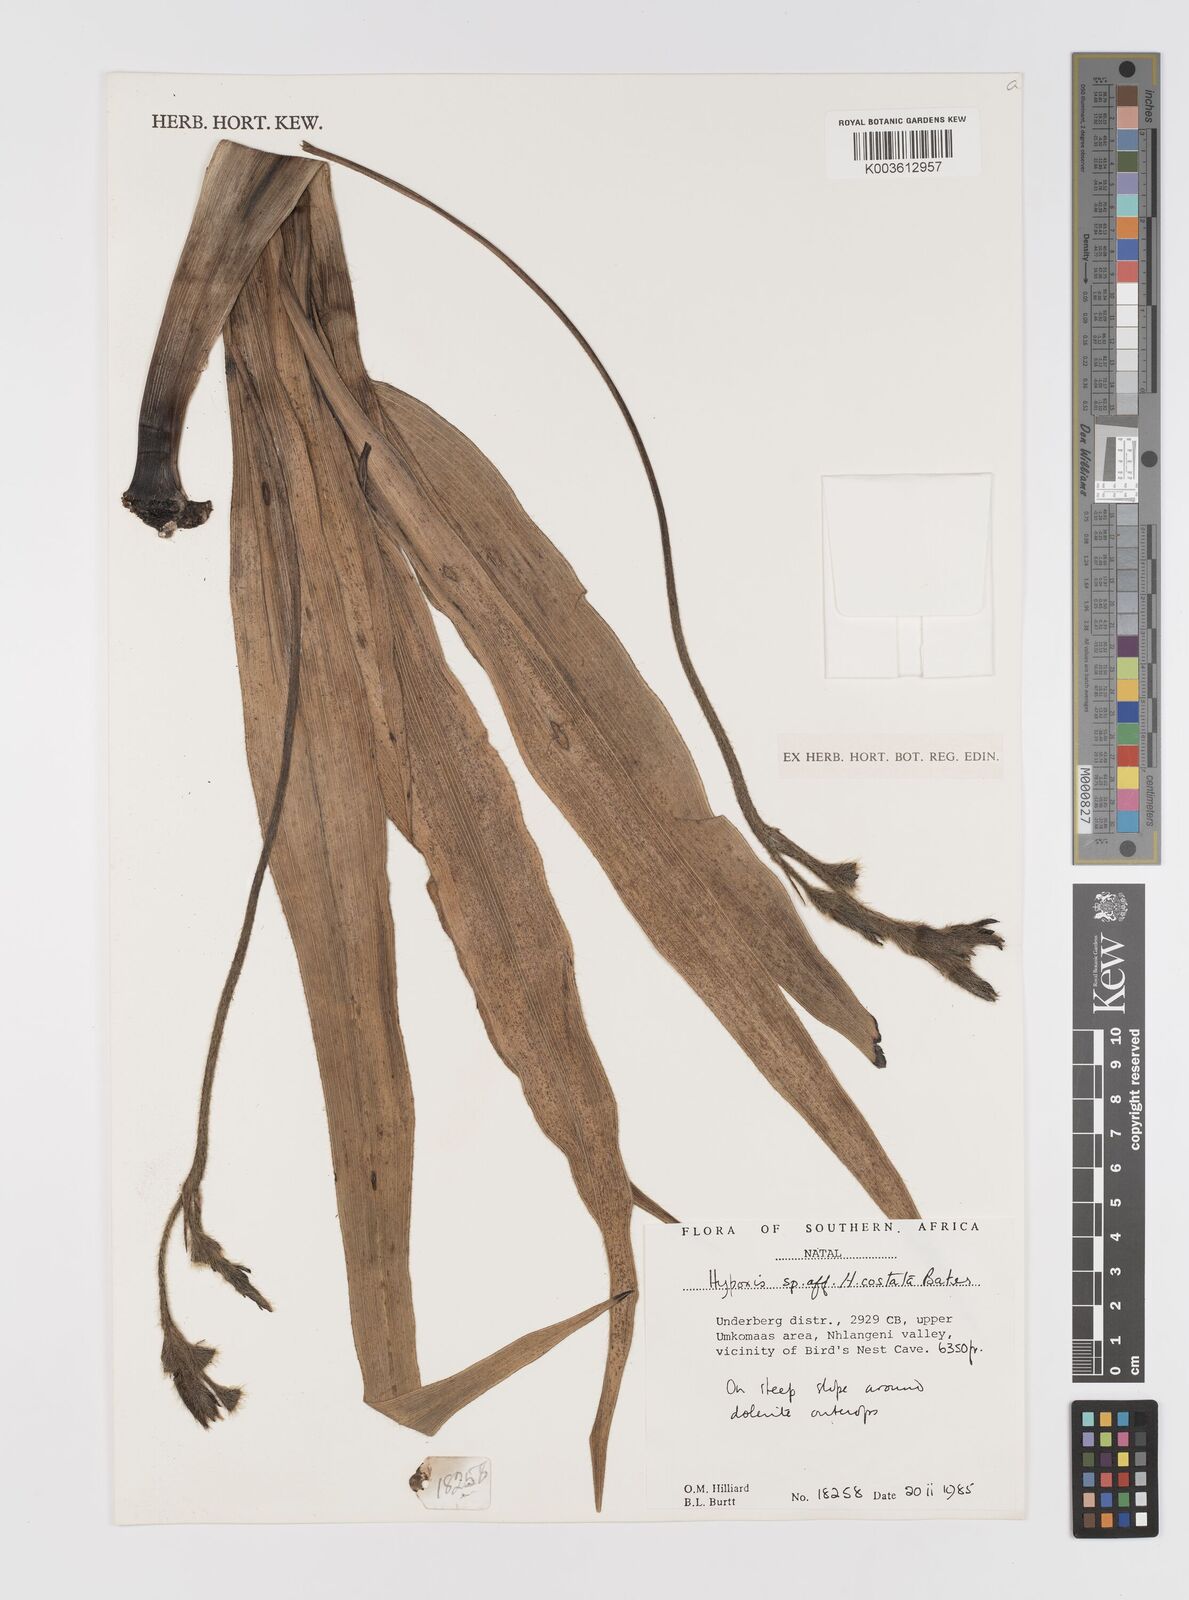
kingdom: Plantae
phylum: Tracheophyta
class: Liliopsida
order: Asparagales
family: Hypoxidaceae
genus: Hypoxis
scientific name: Hypoxis costata
